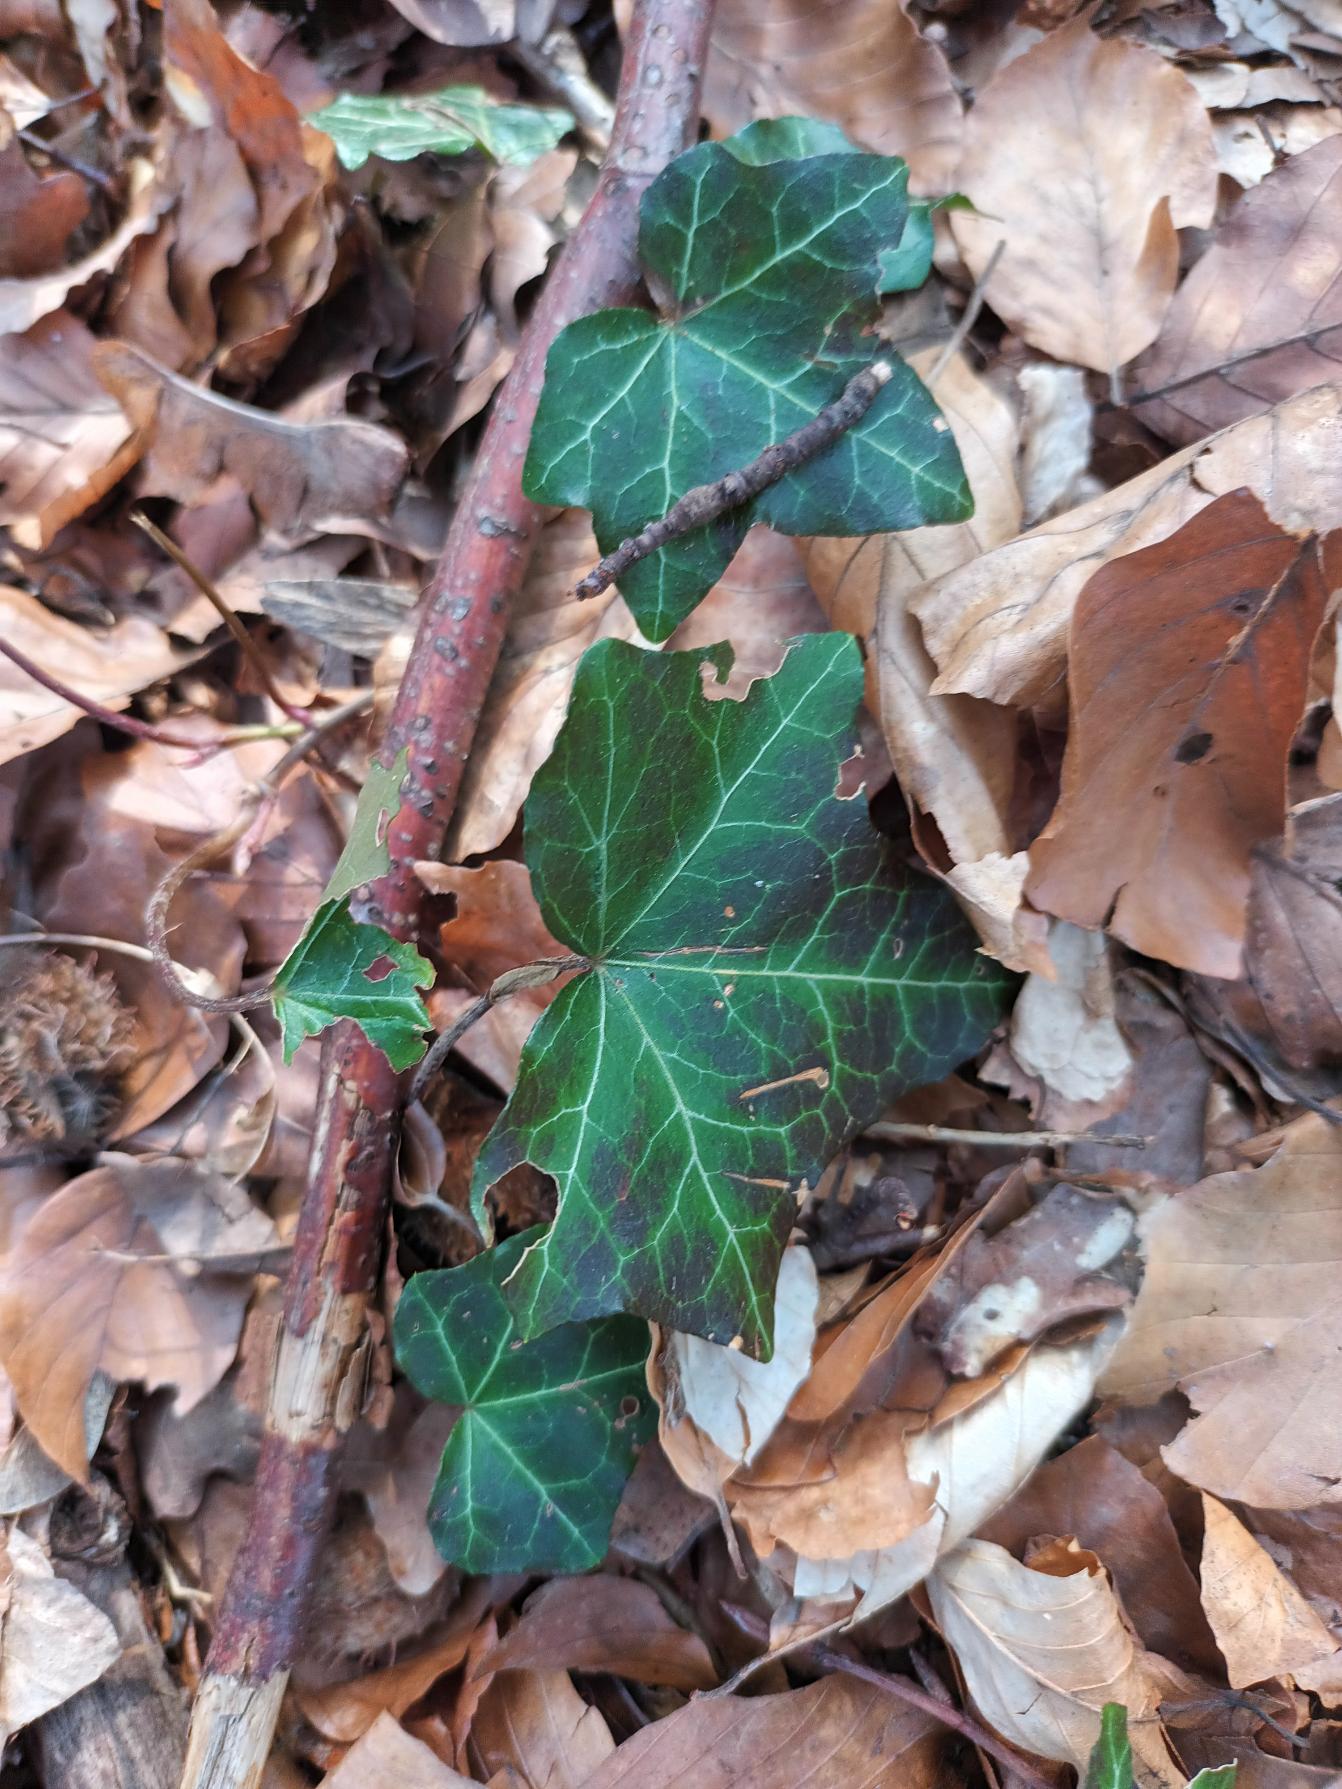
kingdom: Plantae
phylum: Tracheophyta
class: Magnoliopsida
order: Apiales
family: Araliaceae
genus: Hedera
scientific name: Hedera helix
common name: Vedbend
